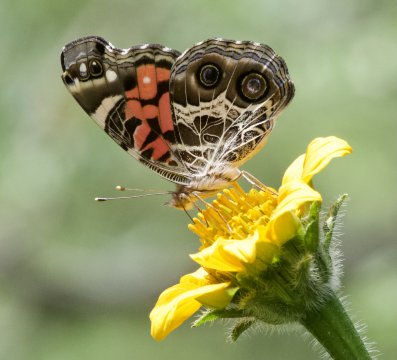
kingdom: Animalia
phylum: Arthropoda
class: Insecta
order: Lepidoptera
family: Nymphalidae
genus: Vanessa
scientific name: Vanessa virginiensis
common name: American Lady
